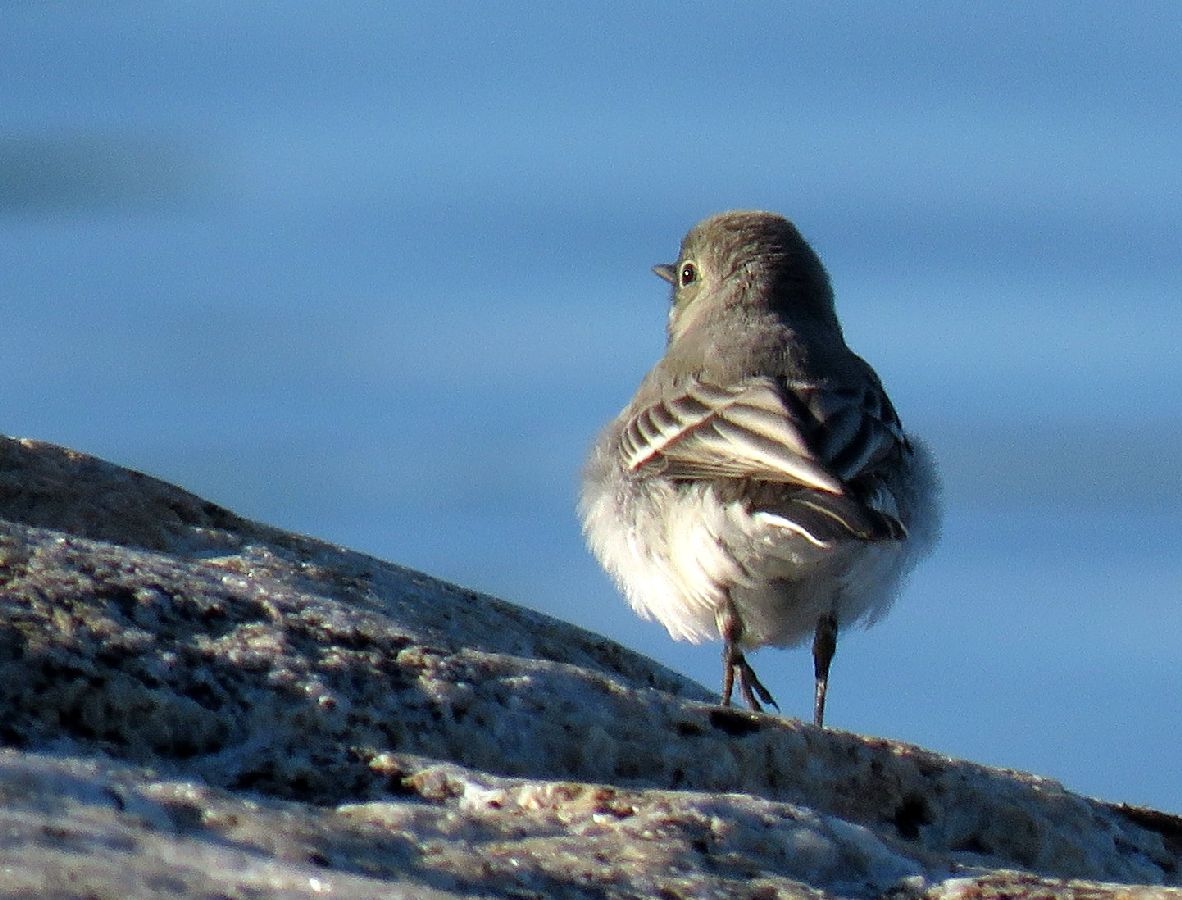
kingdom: Animalia
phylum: Chordata
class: Aves
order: Passeriformes
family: Motacillidae
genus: Motacilla
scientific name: Motacilla alba
